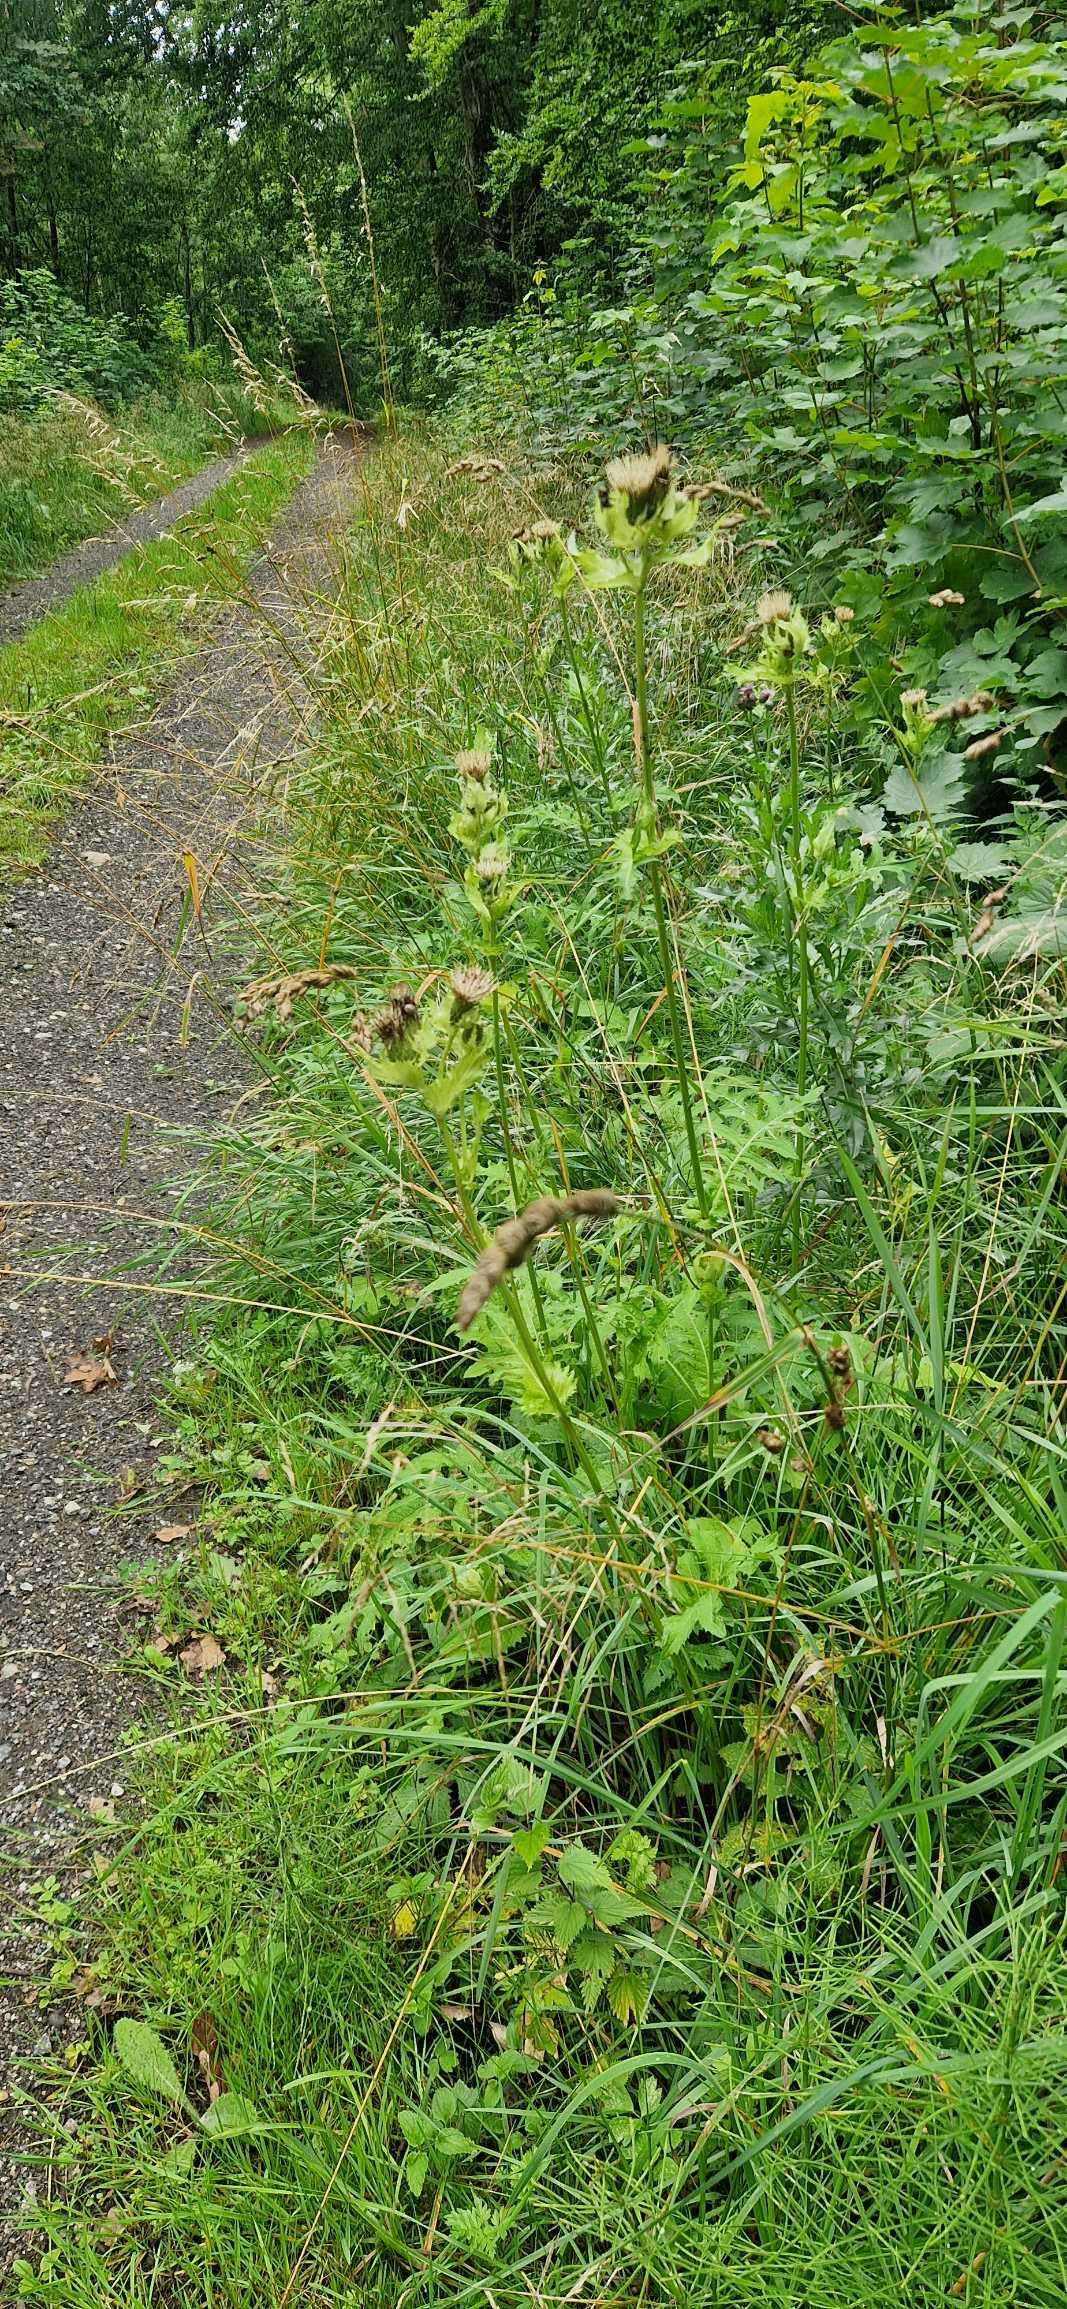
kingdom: Plantae
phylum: Tracheophyta
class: Magnoliopsida
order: Asterales
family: Asteraceae
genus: Cirsium
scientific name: Cirsium oleraceum
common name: Kål-tidsel
